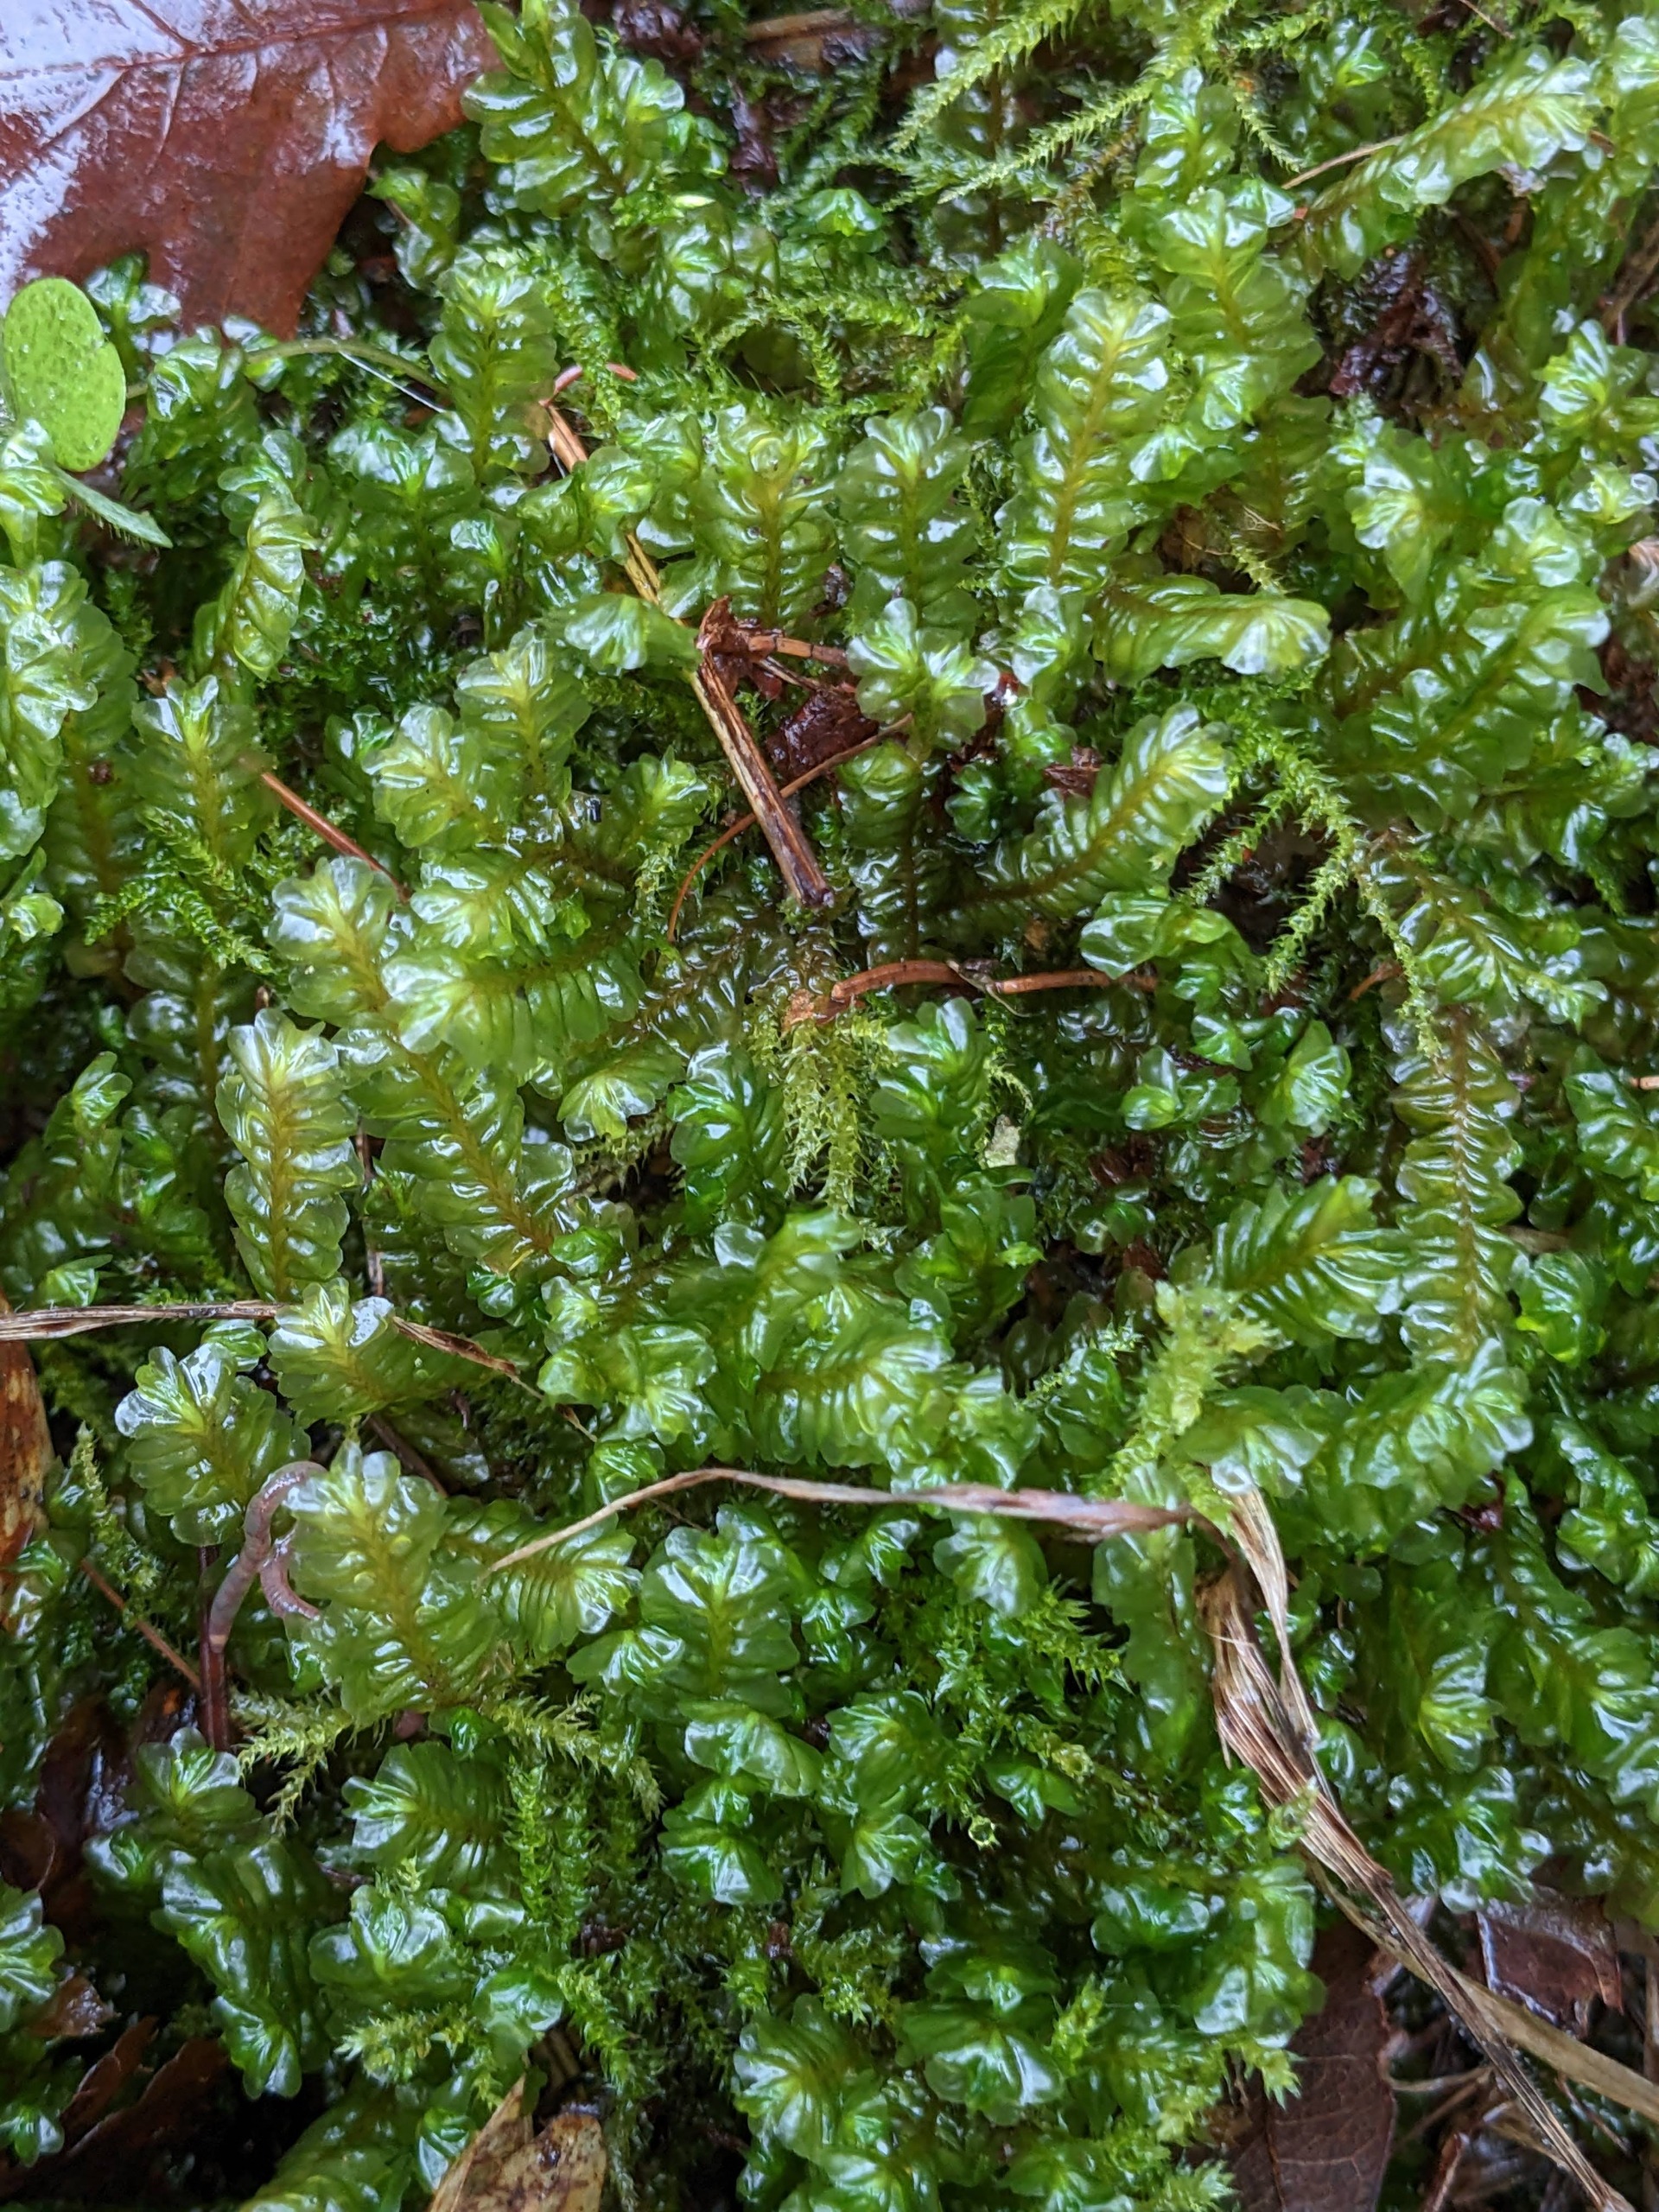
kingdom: Plantae
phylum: Marchantiophyta
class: Jungermanniopsida
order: Jungermanniales
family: Plagiochilaceae
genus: Plagiochila
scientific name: Plagiochila asplenioides
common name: Radeløv-hindeblad
